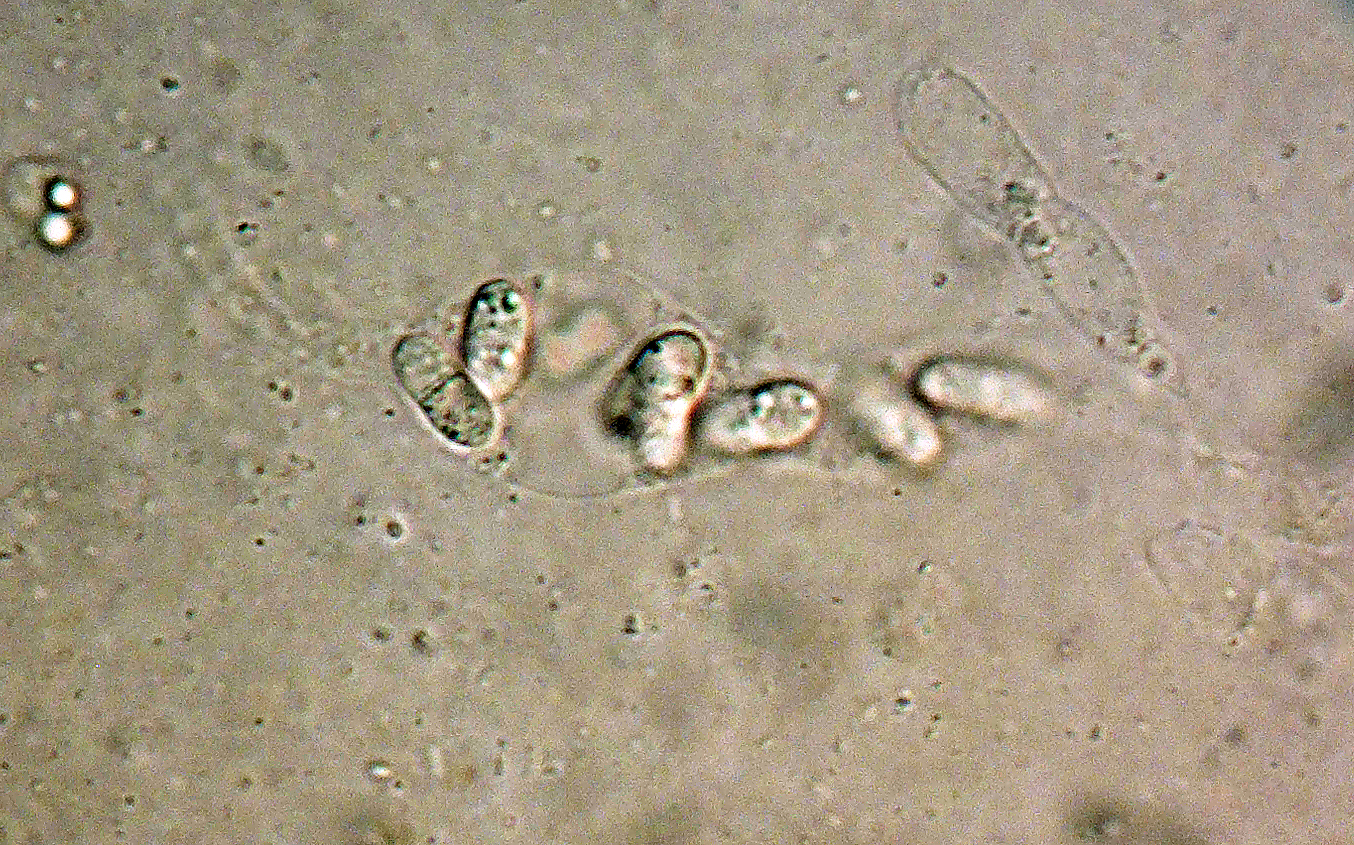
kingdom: Fungi
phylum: Ascomycota
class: Sordariomycetes
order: Sordariales
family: Helminthosphaeriaceae
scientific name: Helminthosphaeriaceae
